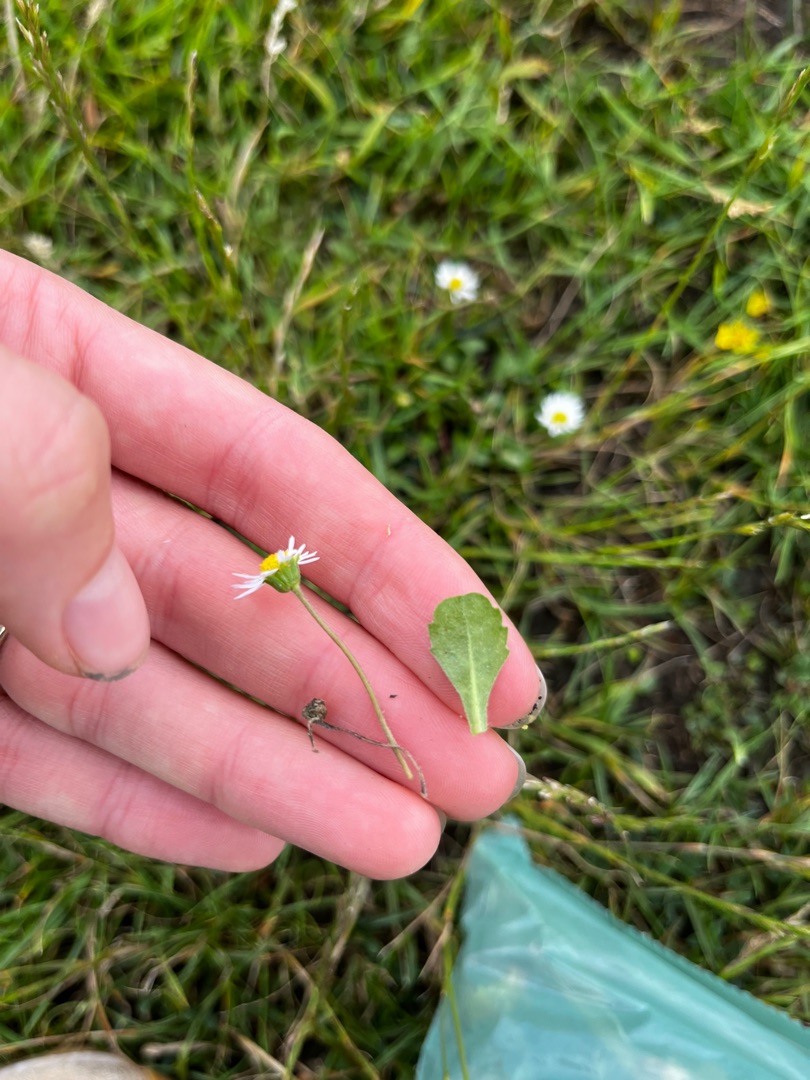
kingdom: Plantae
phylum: Tracheophyta
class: Magnoliopsida
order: Asterales
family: Asteraceae
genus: Bellis
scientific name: Bellis perennis
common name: Tusindfryd
